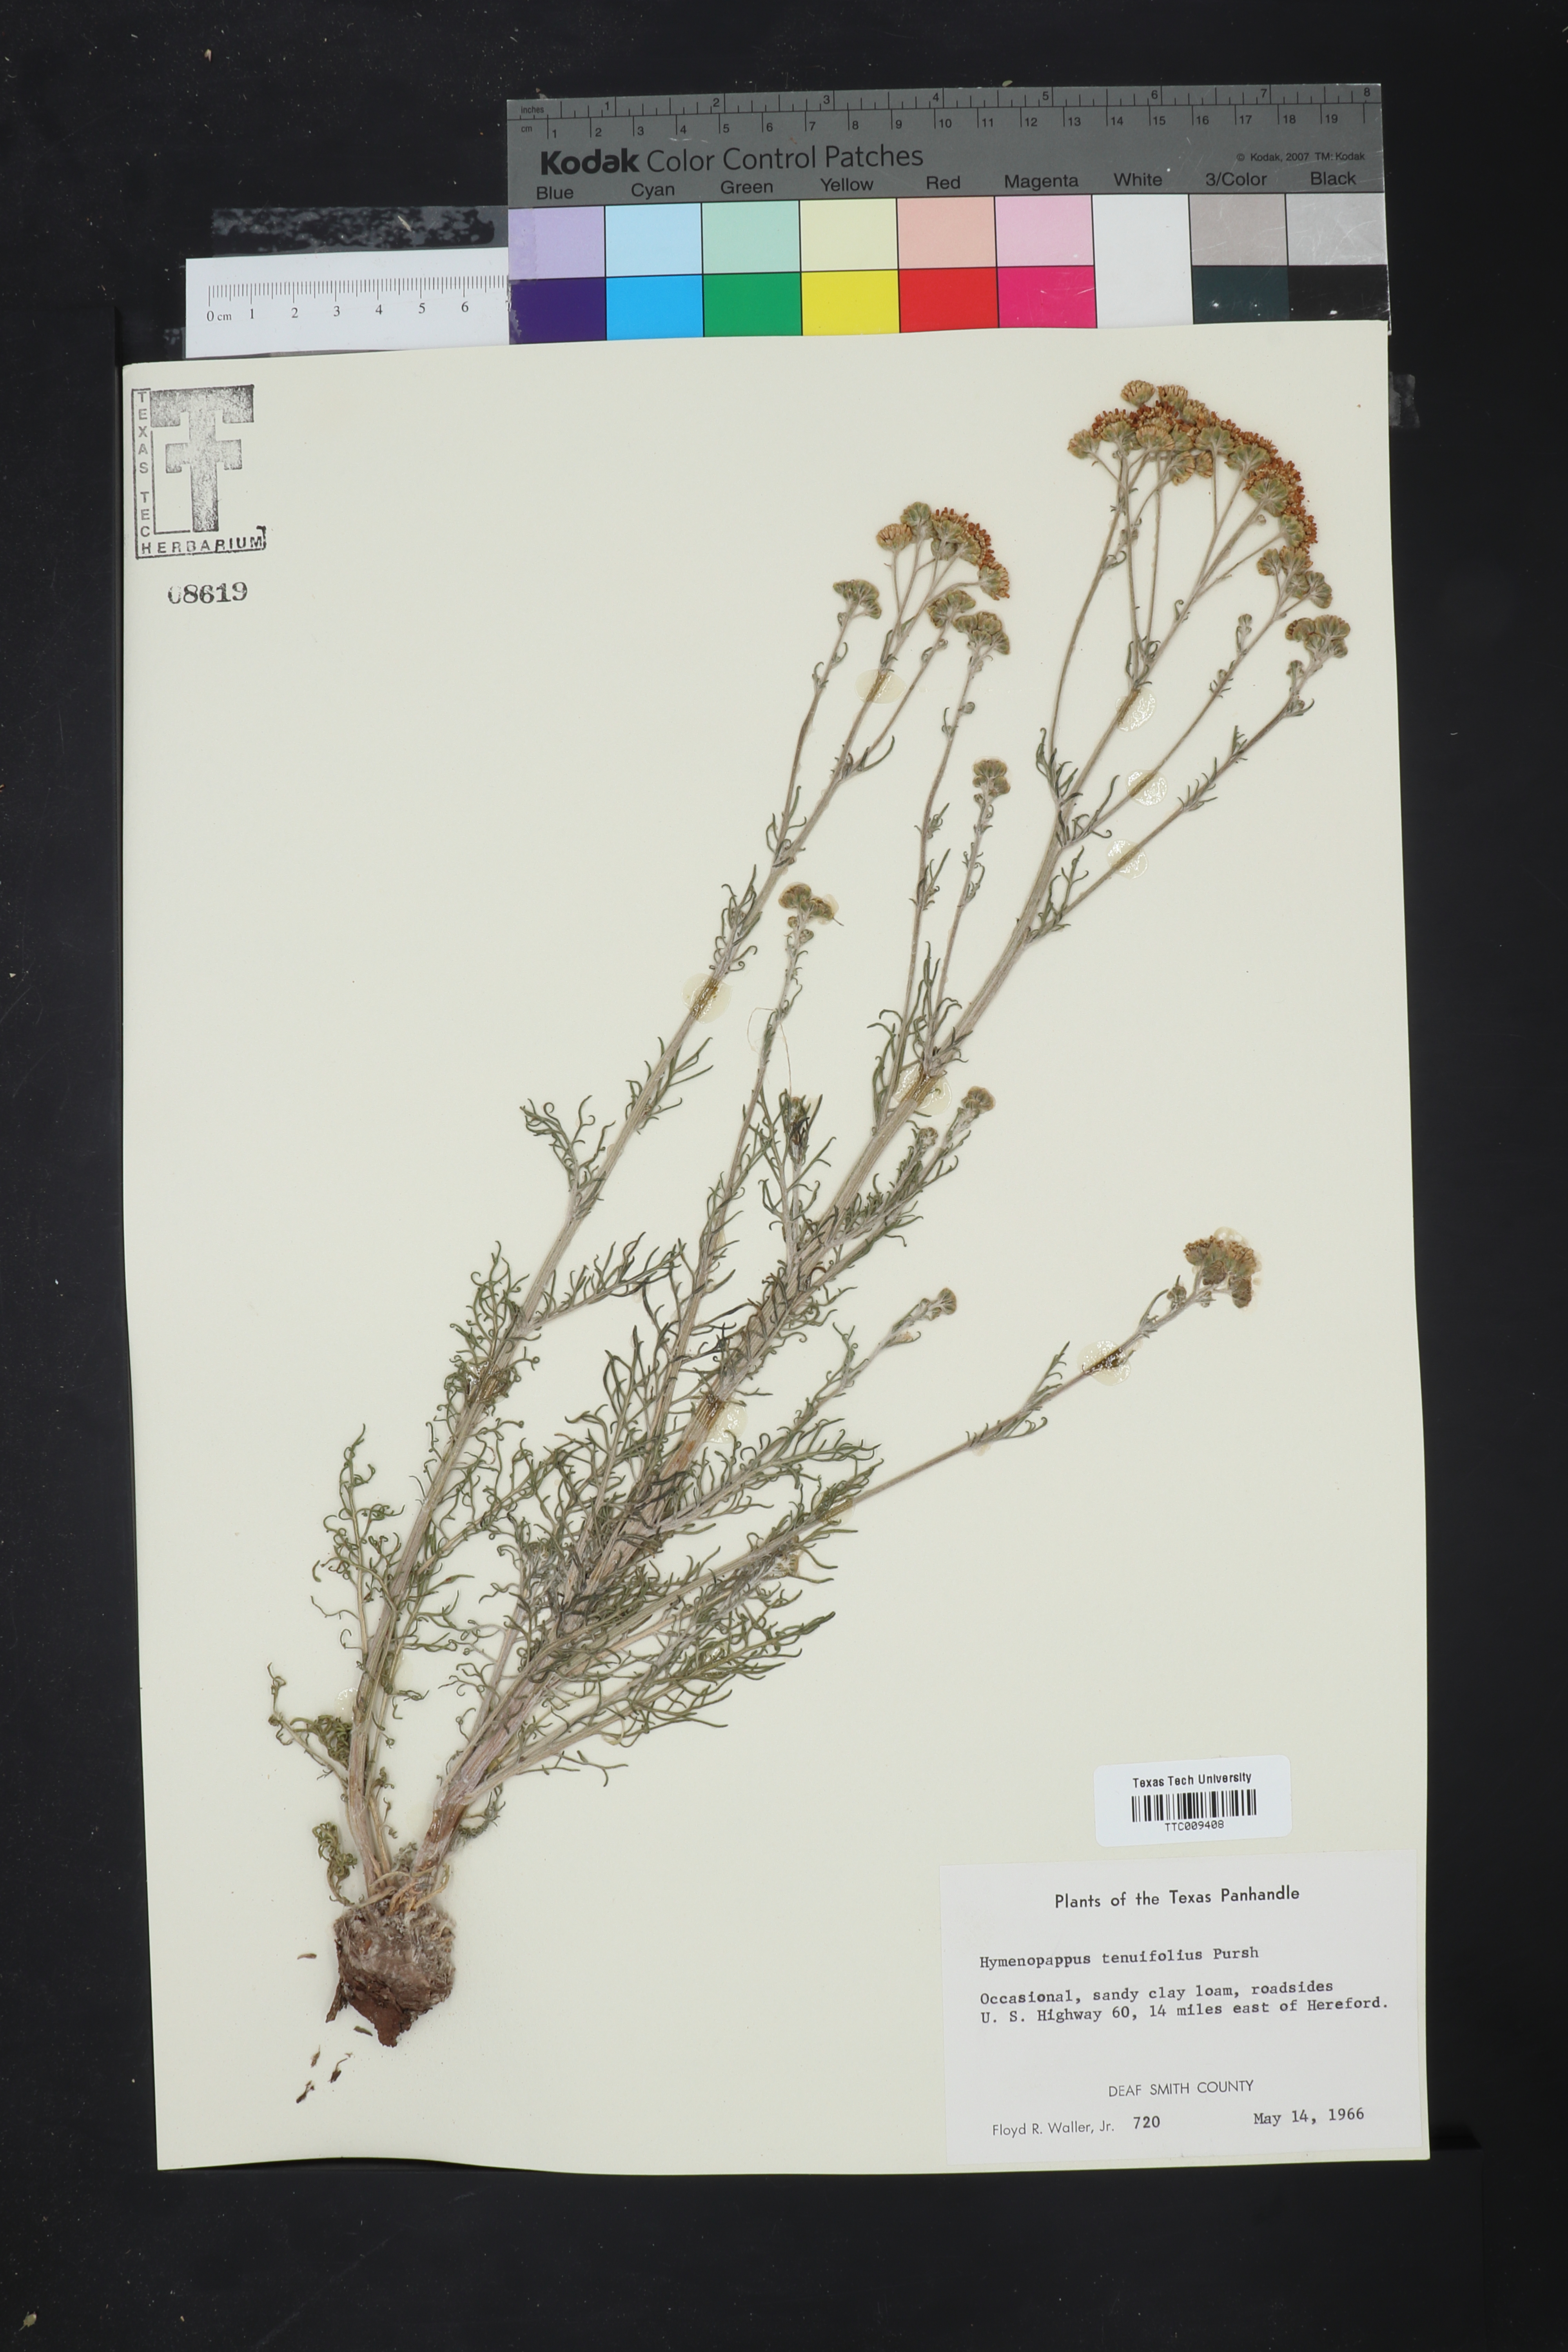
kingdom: Plantae
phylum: Tracheophyta
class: Magnoliopsida
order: Asterales
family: Asteraceae
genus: Hymenopappus
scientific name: Hymenopappus tenuifolius
